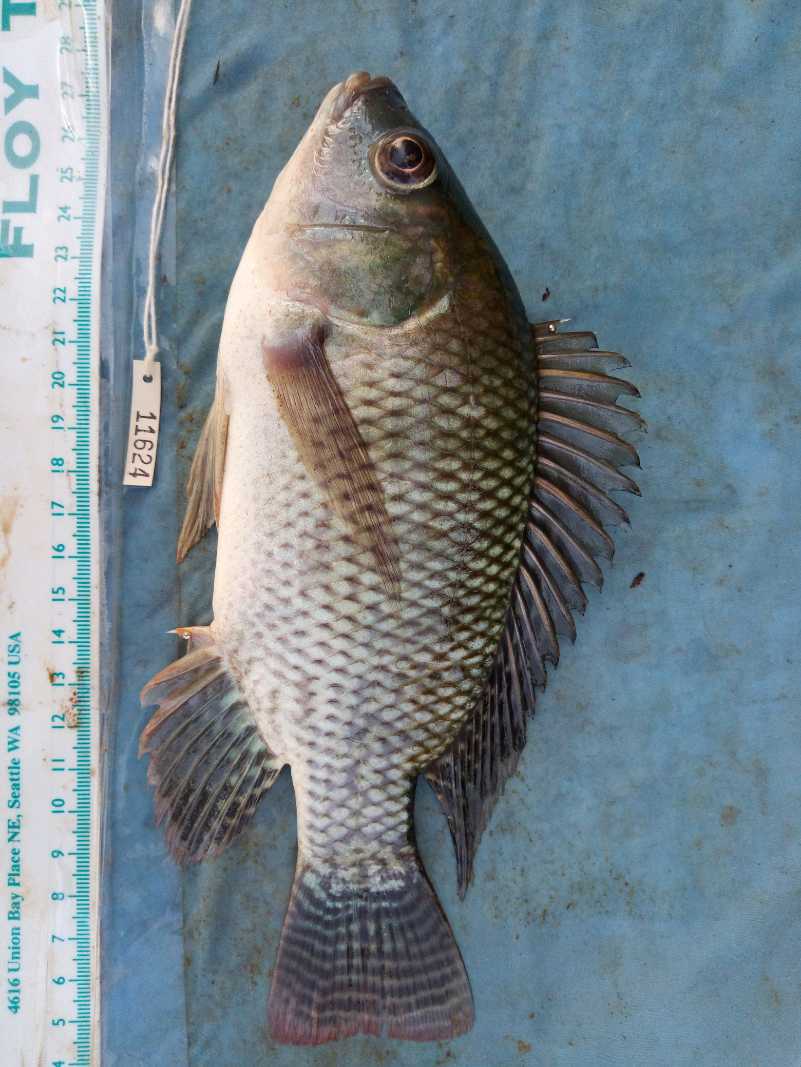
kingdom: Animalia
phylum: Chordata
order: Perciformes
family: Cichlidae
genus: Oreochromis
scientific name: Oreochromis niloticus
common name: Nile tilapia
